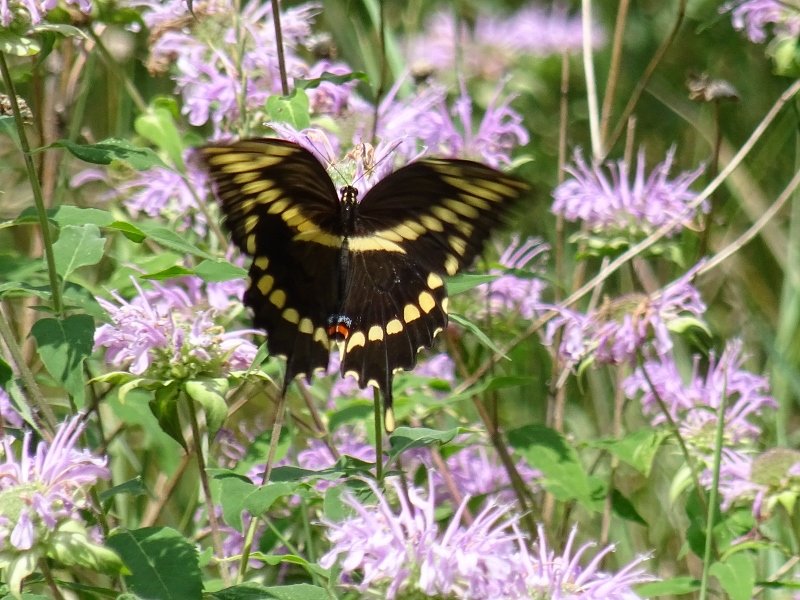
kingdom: Animalia
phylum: Arthropoda
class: Insecta
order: Lepidoptera
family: Papilionidae
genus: Papilio
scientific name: Papilio cresphontes
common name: Eastern Giant Swallowtail
